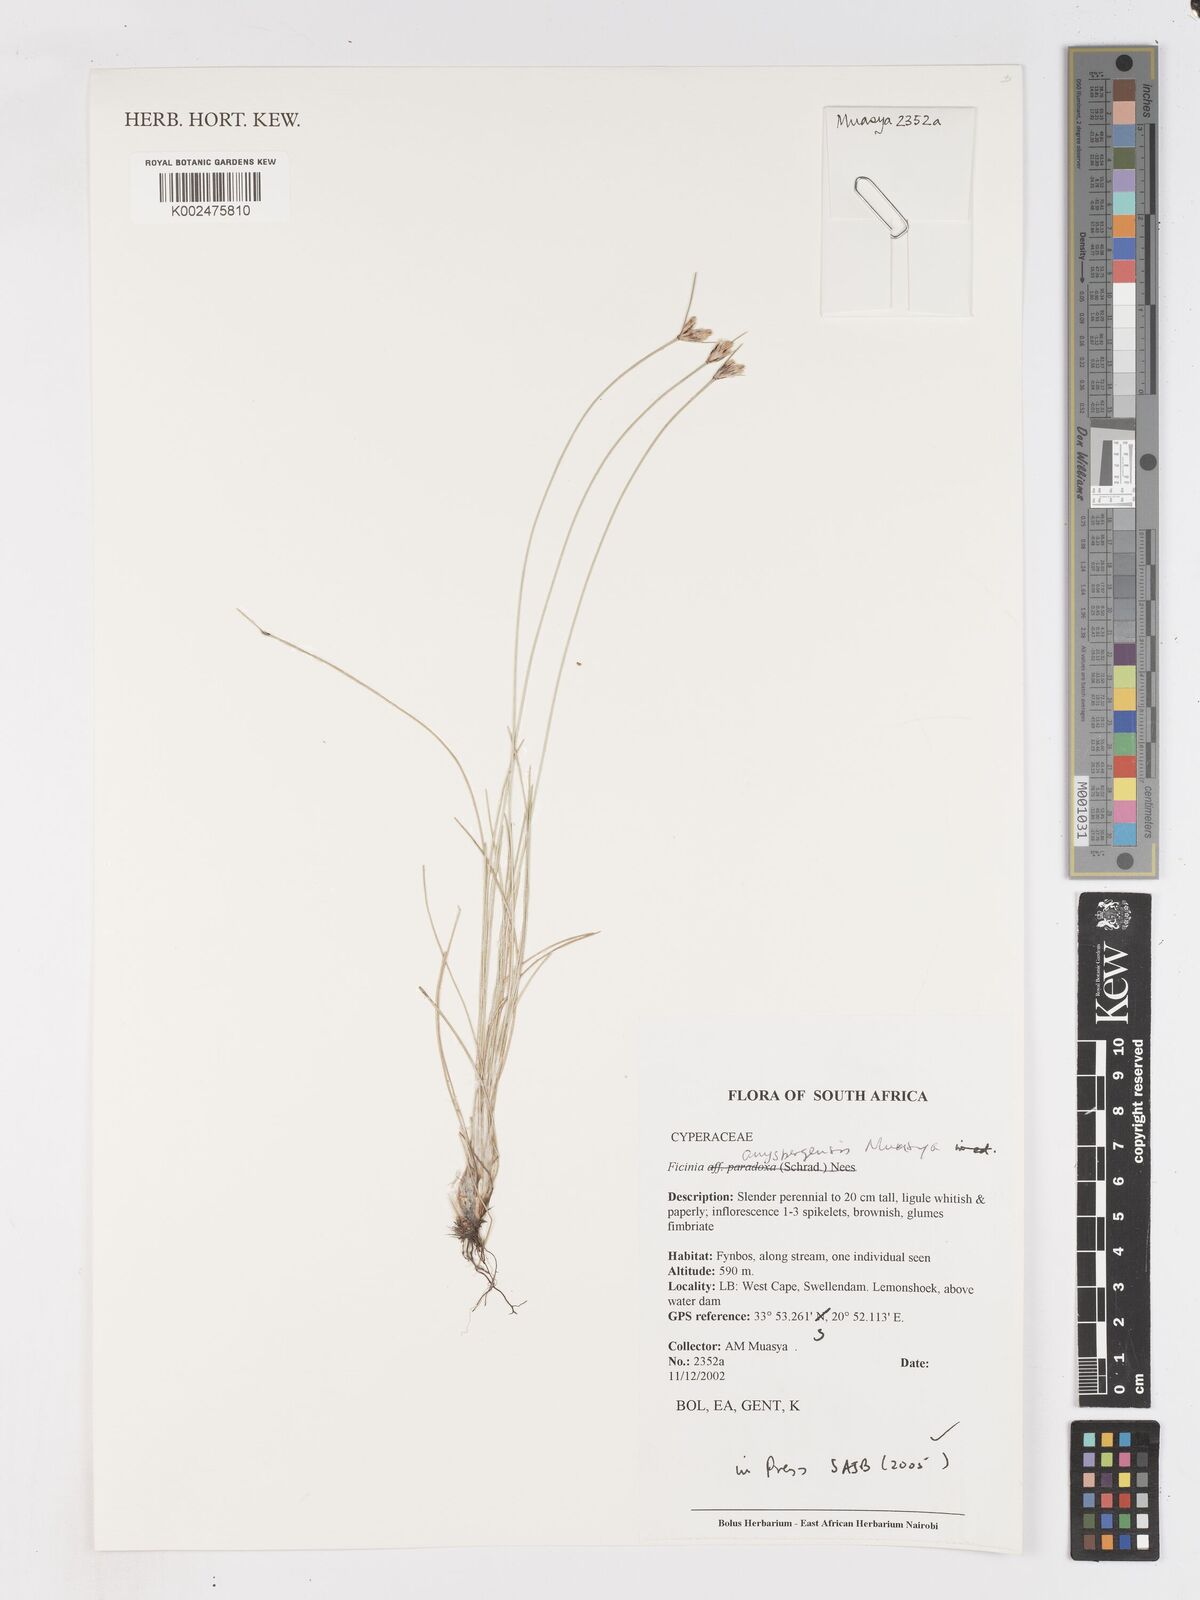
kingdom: Plantae
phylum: Tracheophyta
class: Liliopsida
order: Poales
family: Cyperaceae
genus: Ficinia
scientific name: Ficinia anysbergensis
